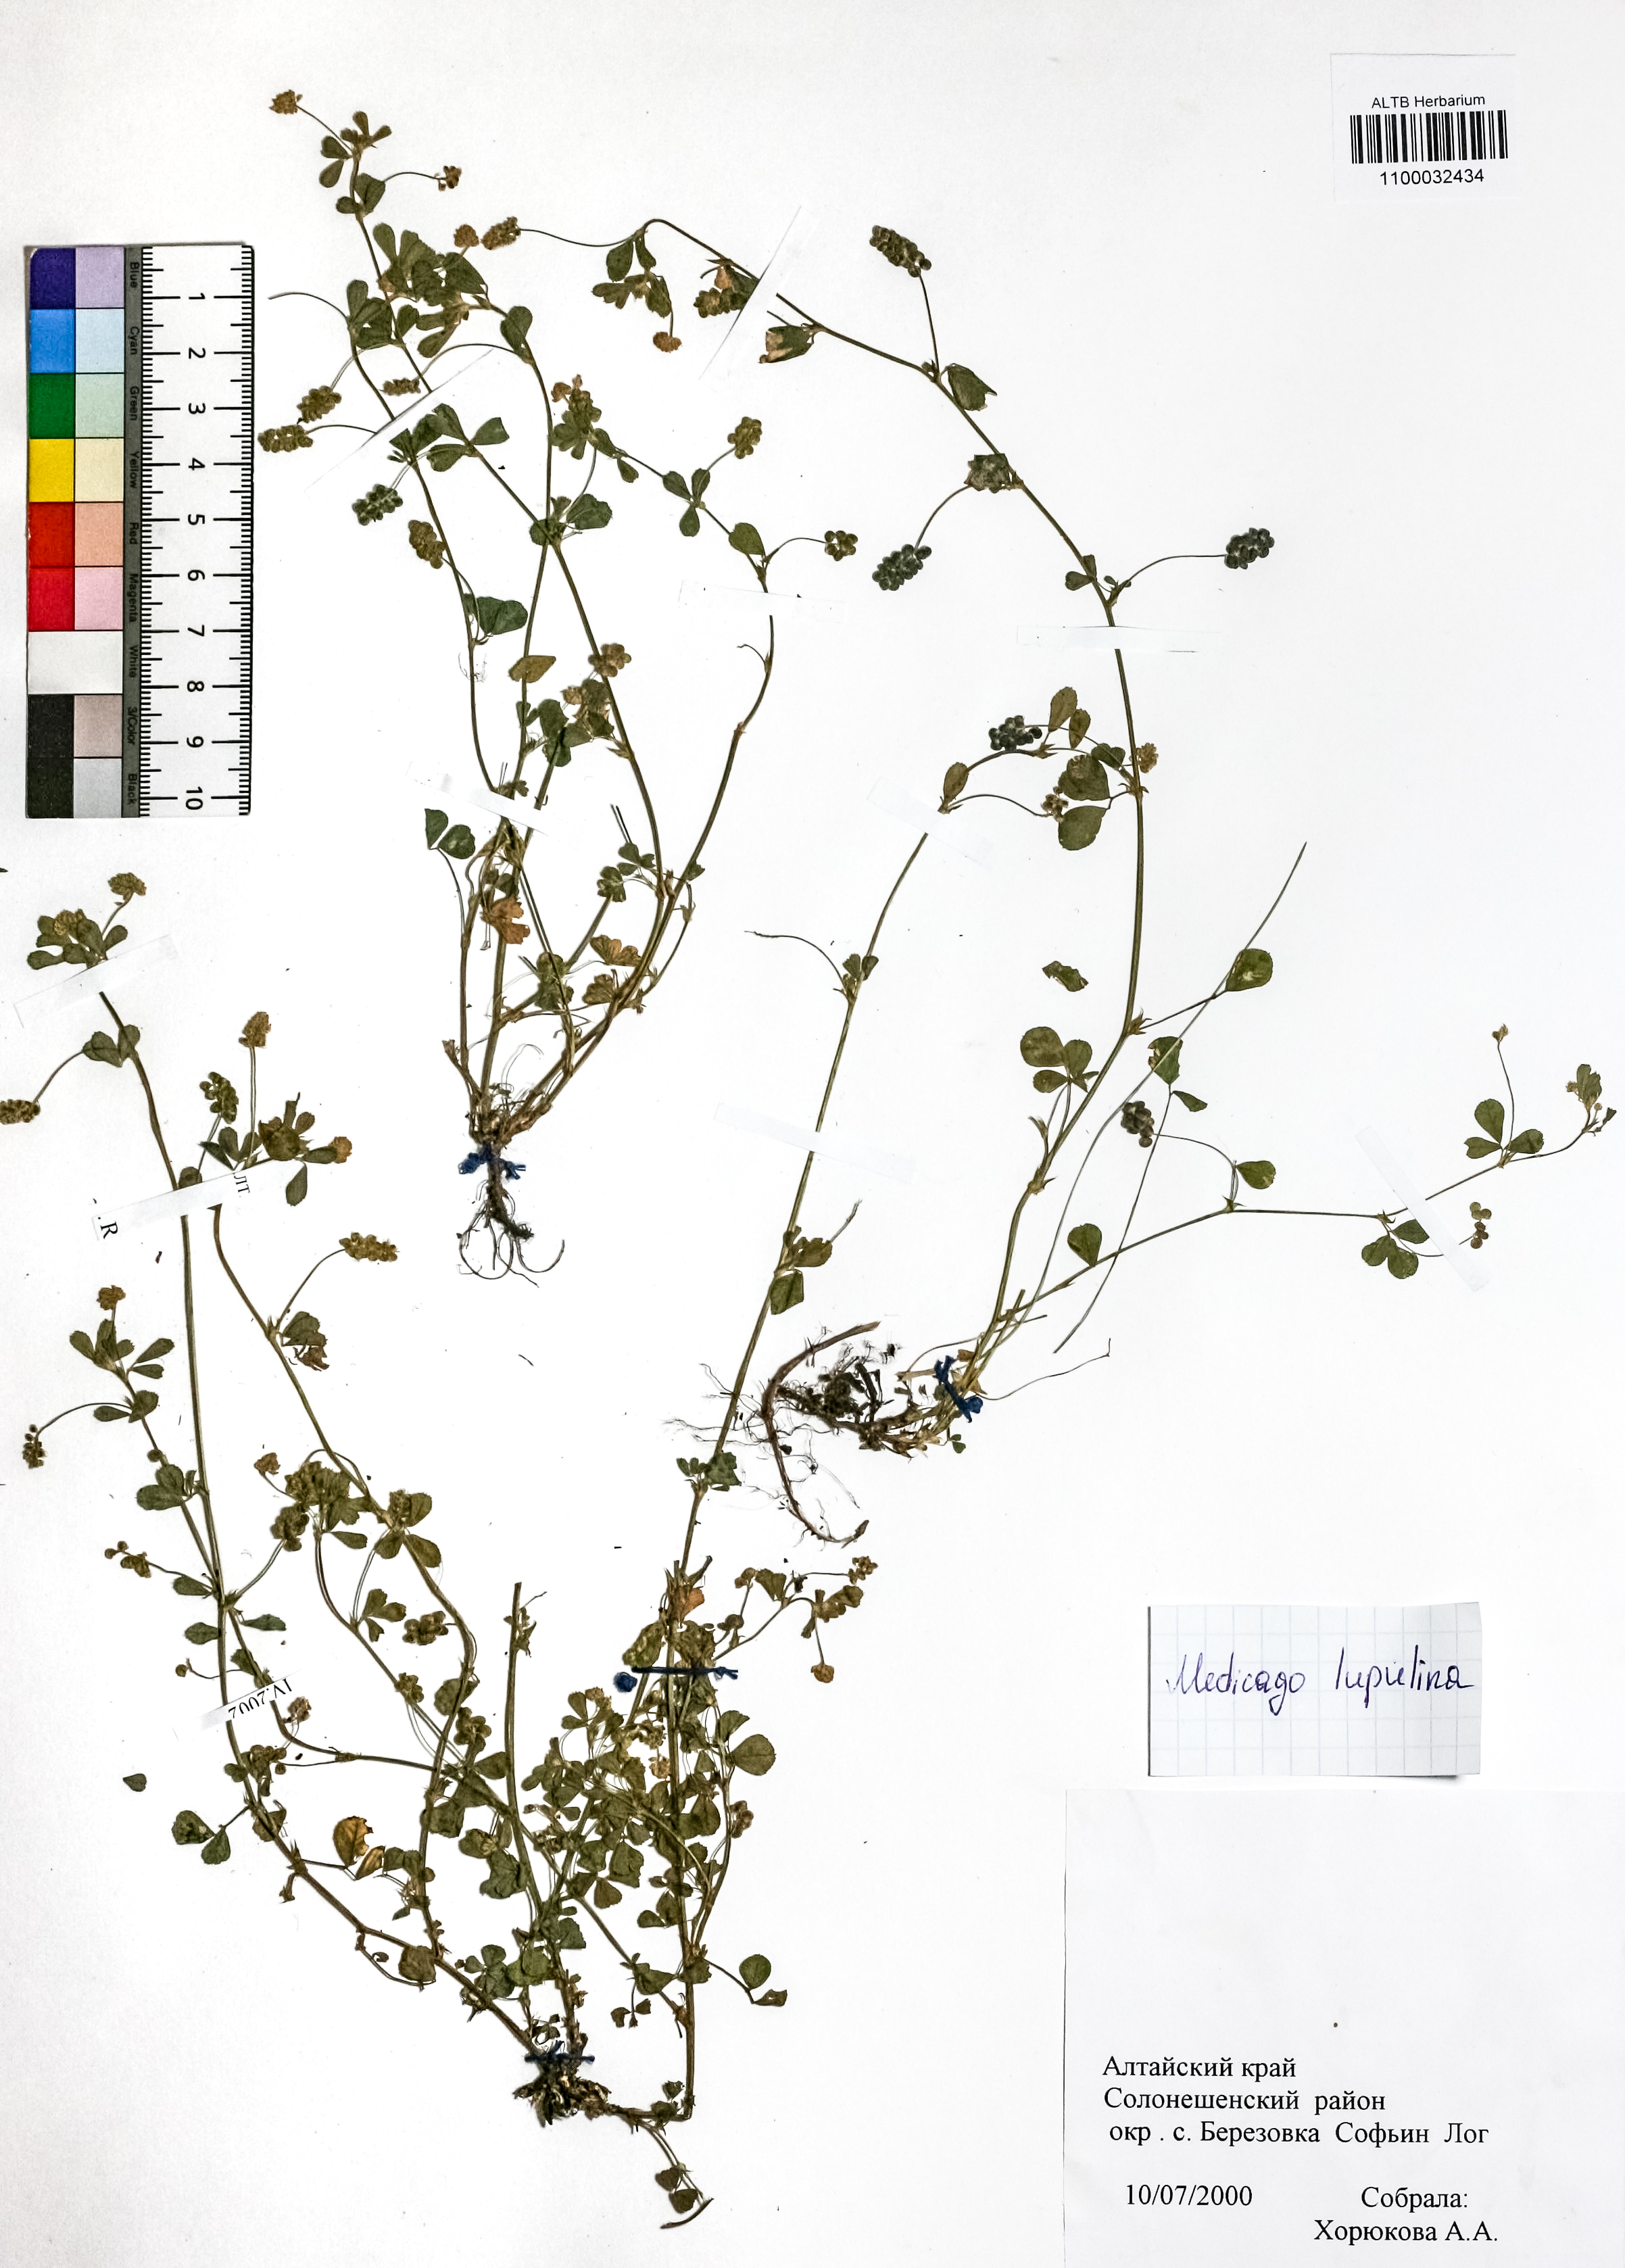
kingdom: Plantae
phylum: Tracheophyta
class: Magnoliopsida
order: Fabales
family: Fabaceae
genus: Medicago
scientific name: Medicago lupulina
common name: Black medick
